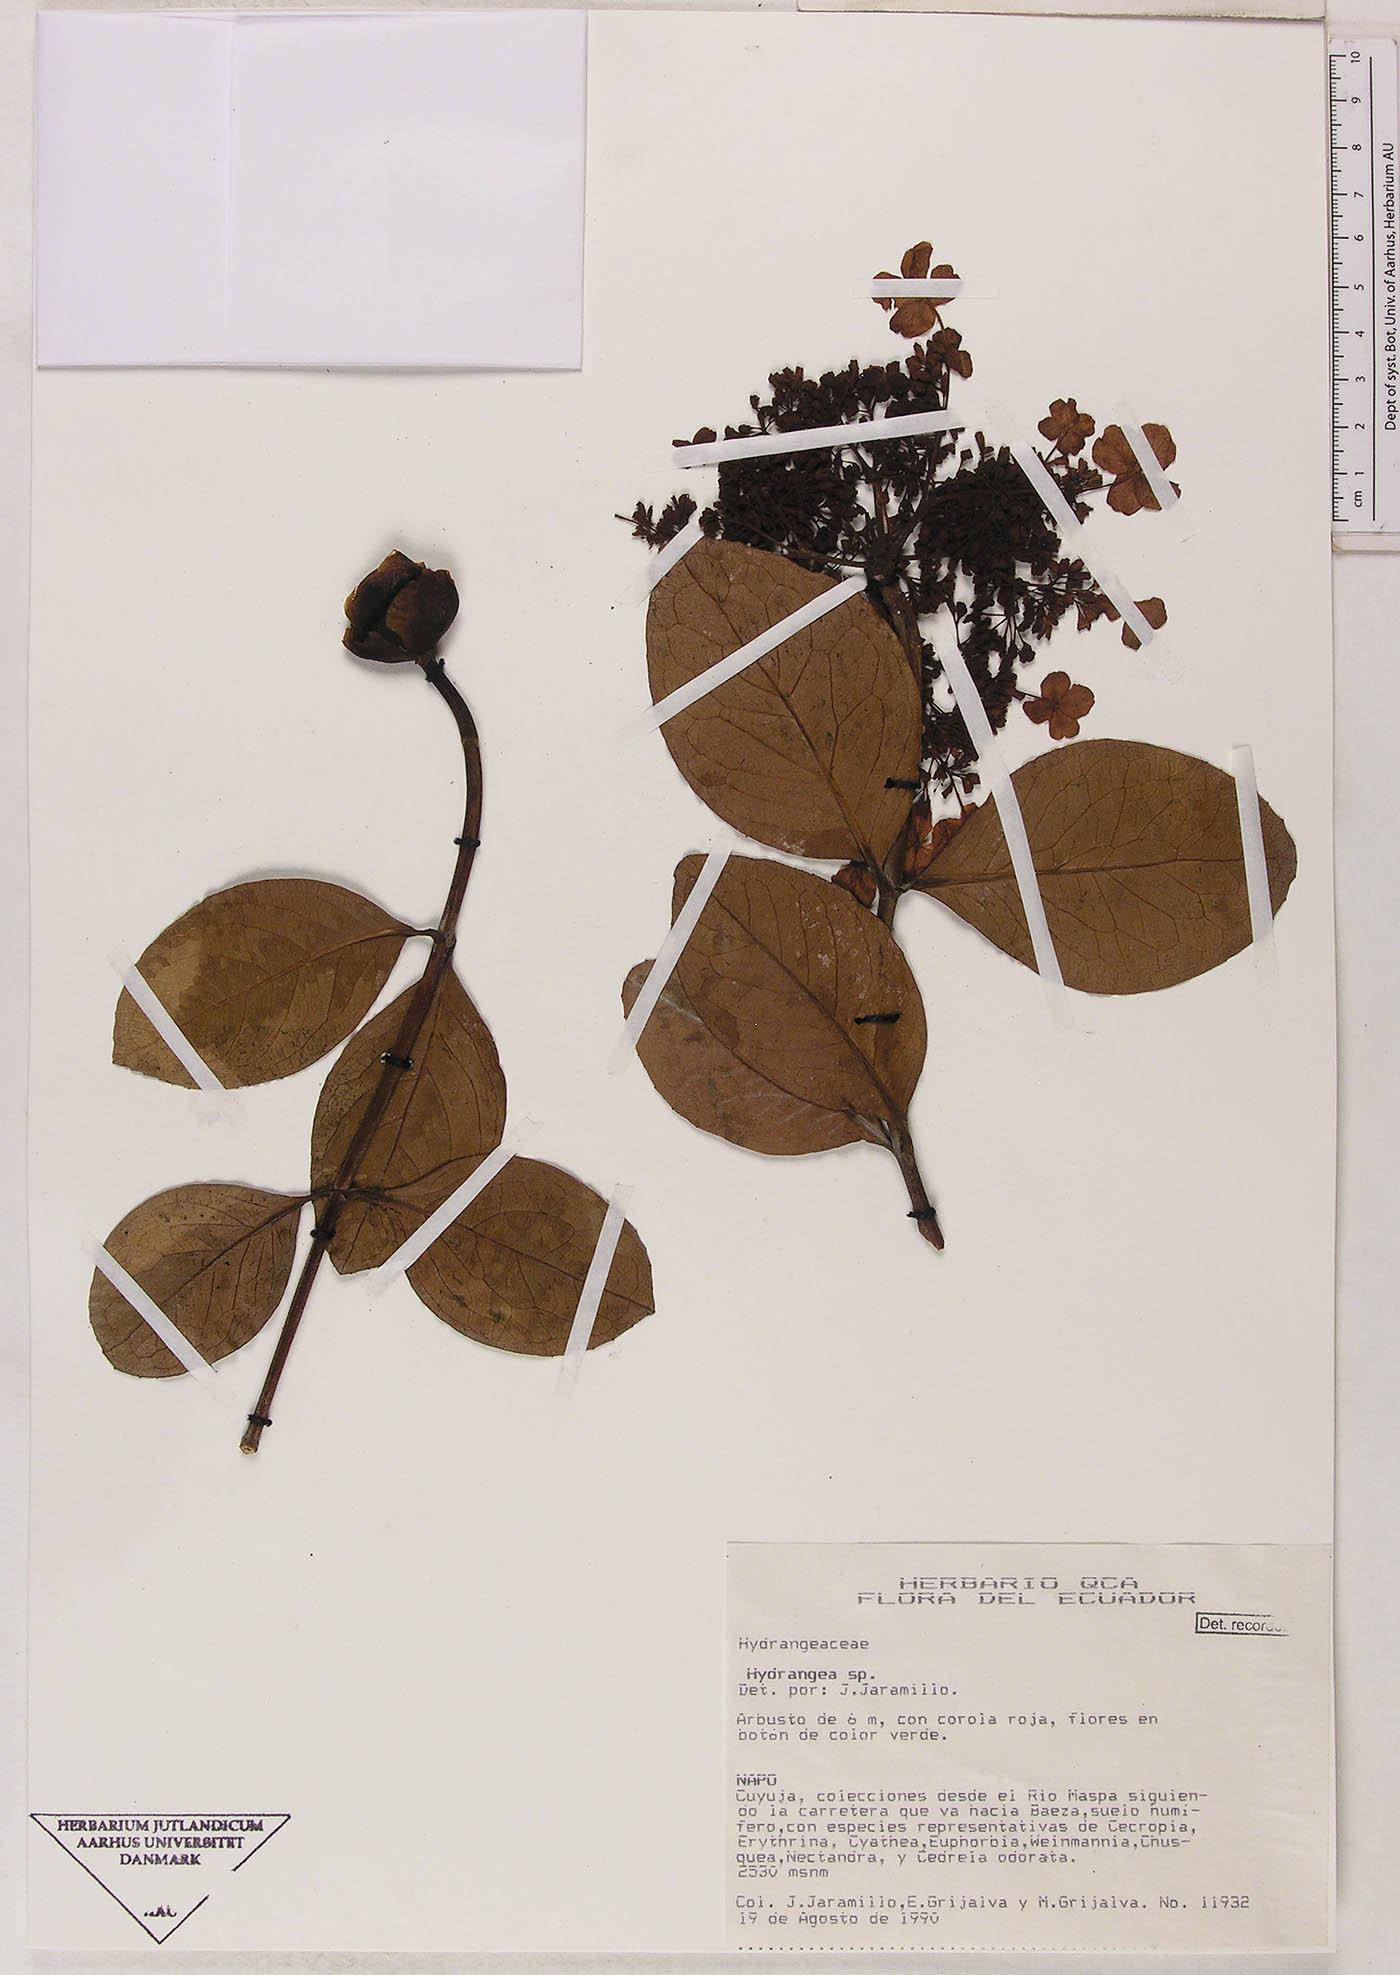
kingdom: Plantae
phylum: Tracheophyta
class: Magnoliopsida
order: Cornales
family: Hydrangeaceae
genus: Hydrangea
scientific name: Hydrangea
